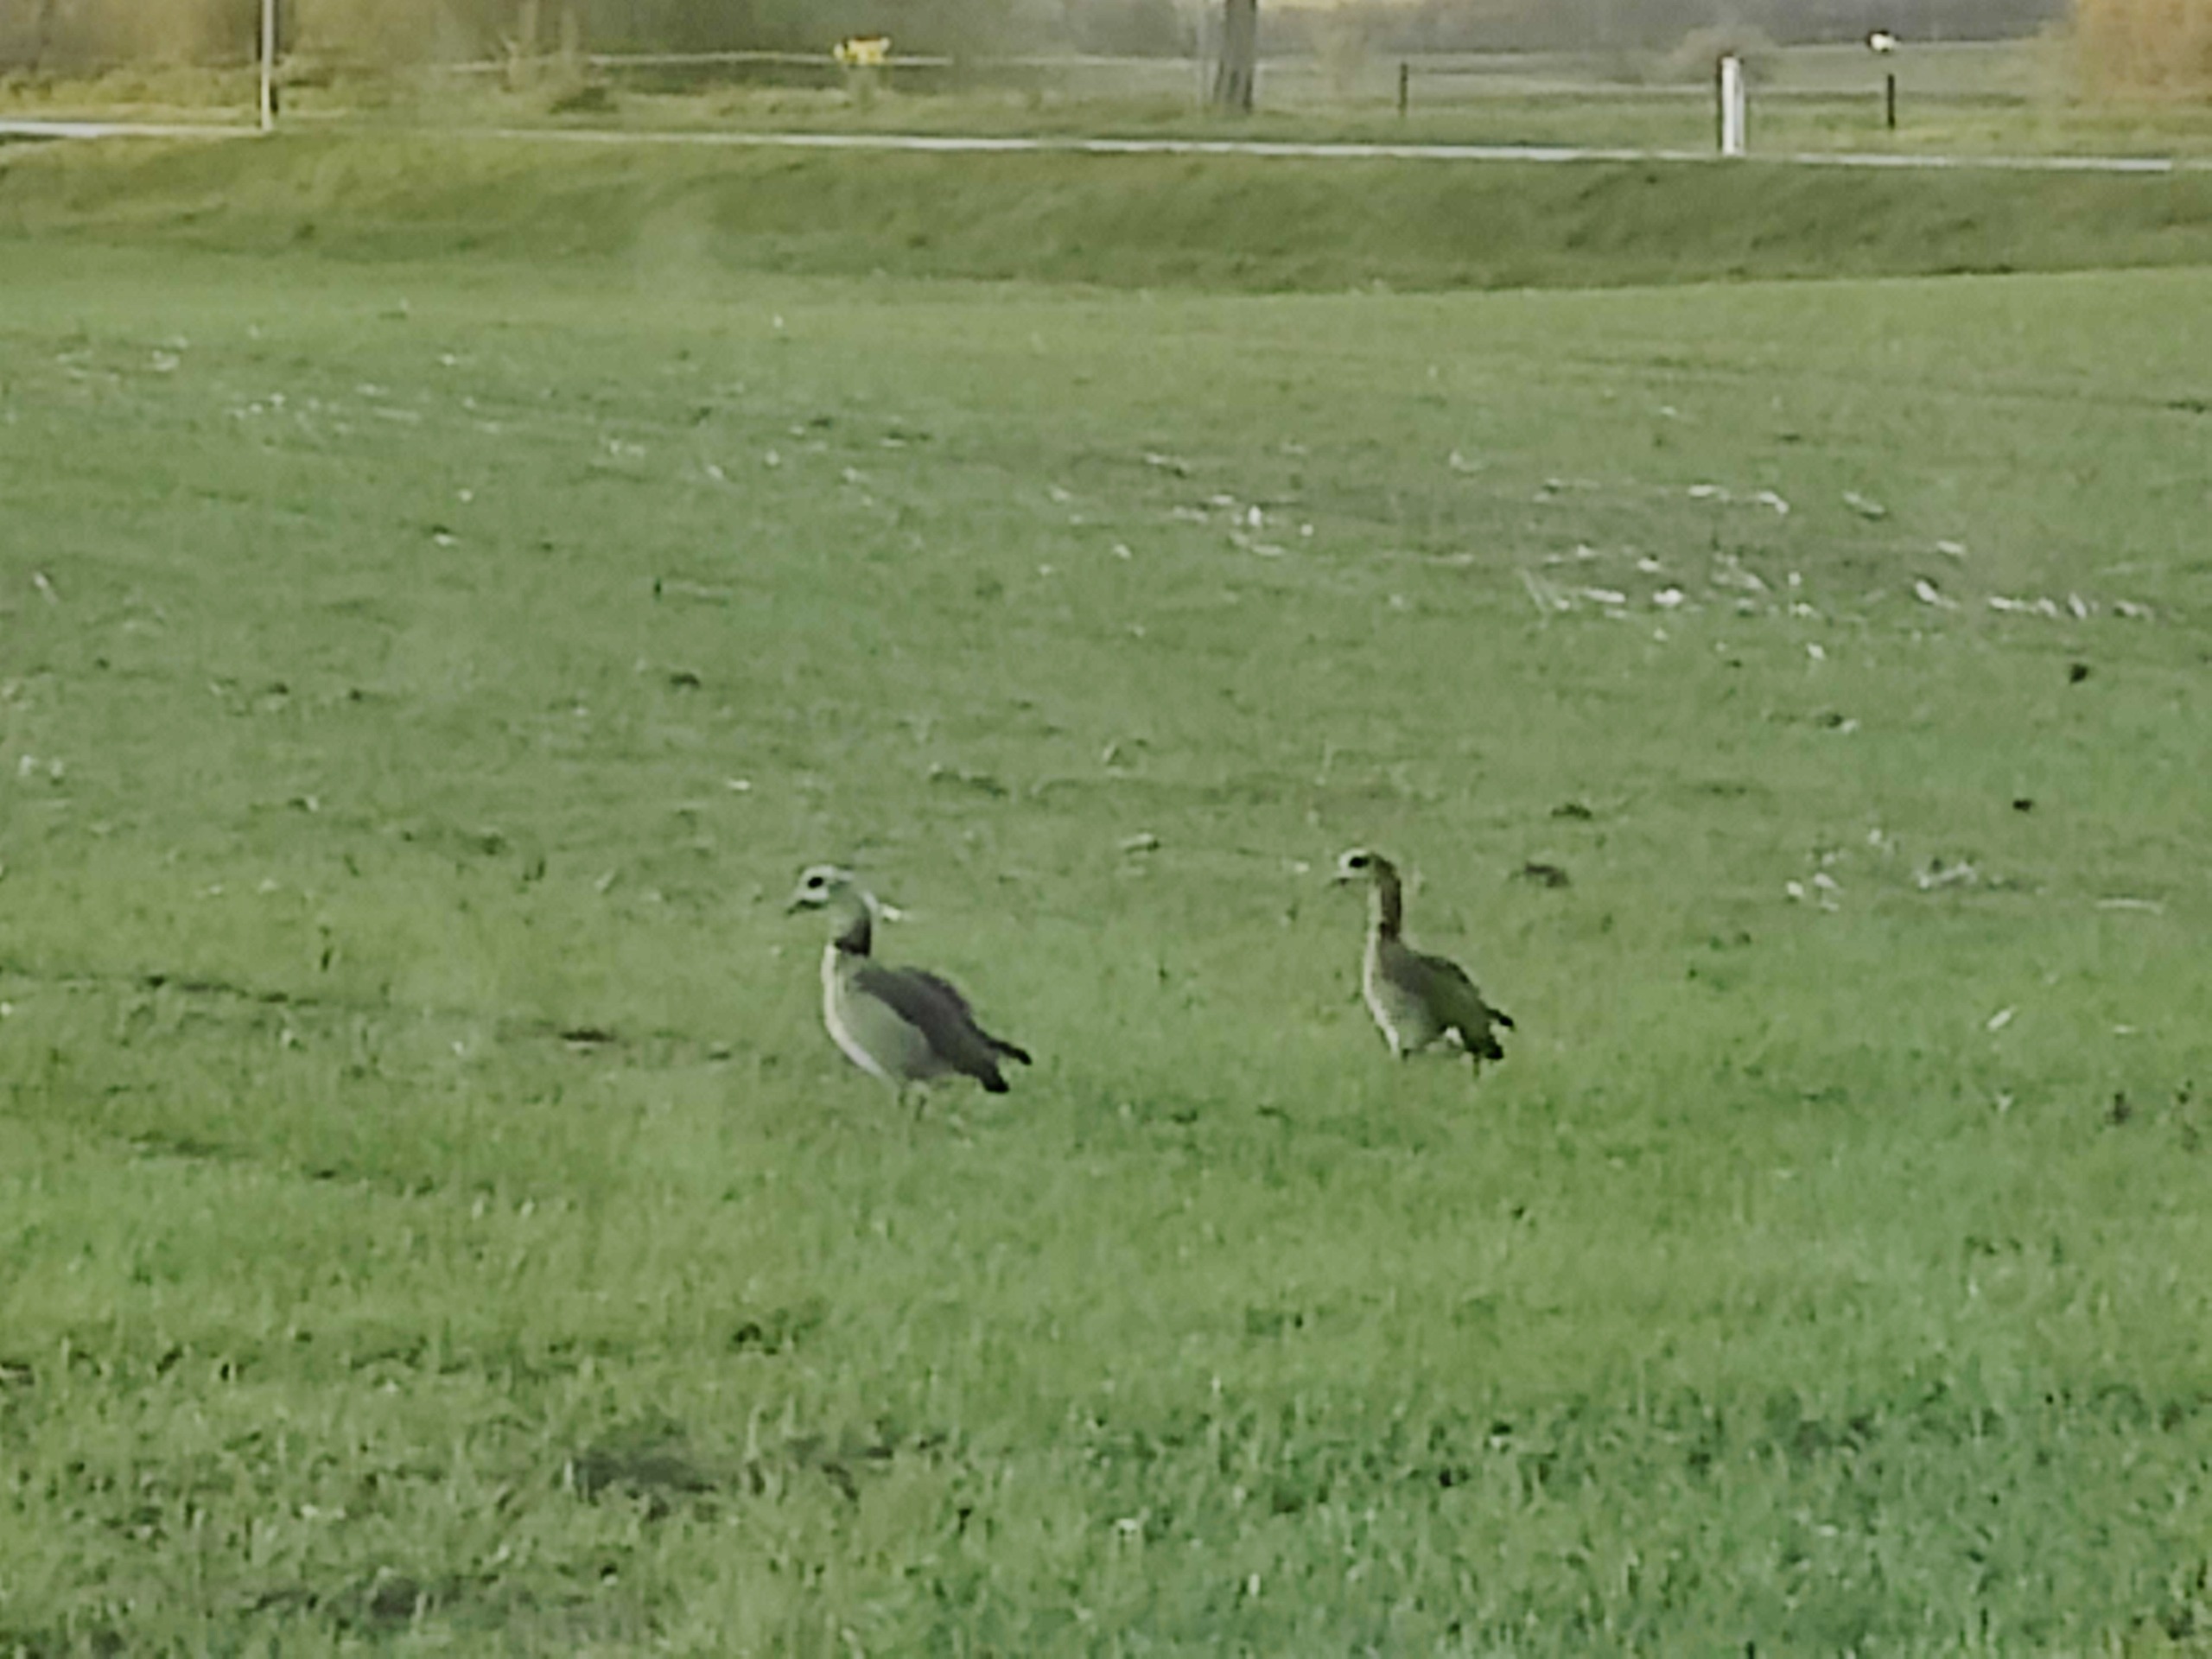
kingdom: Animalia
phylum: Chordata
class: Aves
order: Anseriformes
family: Anatidae
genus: Alopochen
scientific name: Alopochen aegyptiaca
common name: Nilgås
